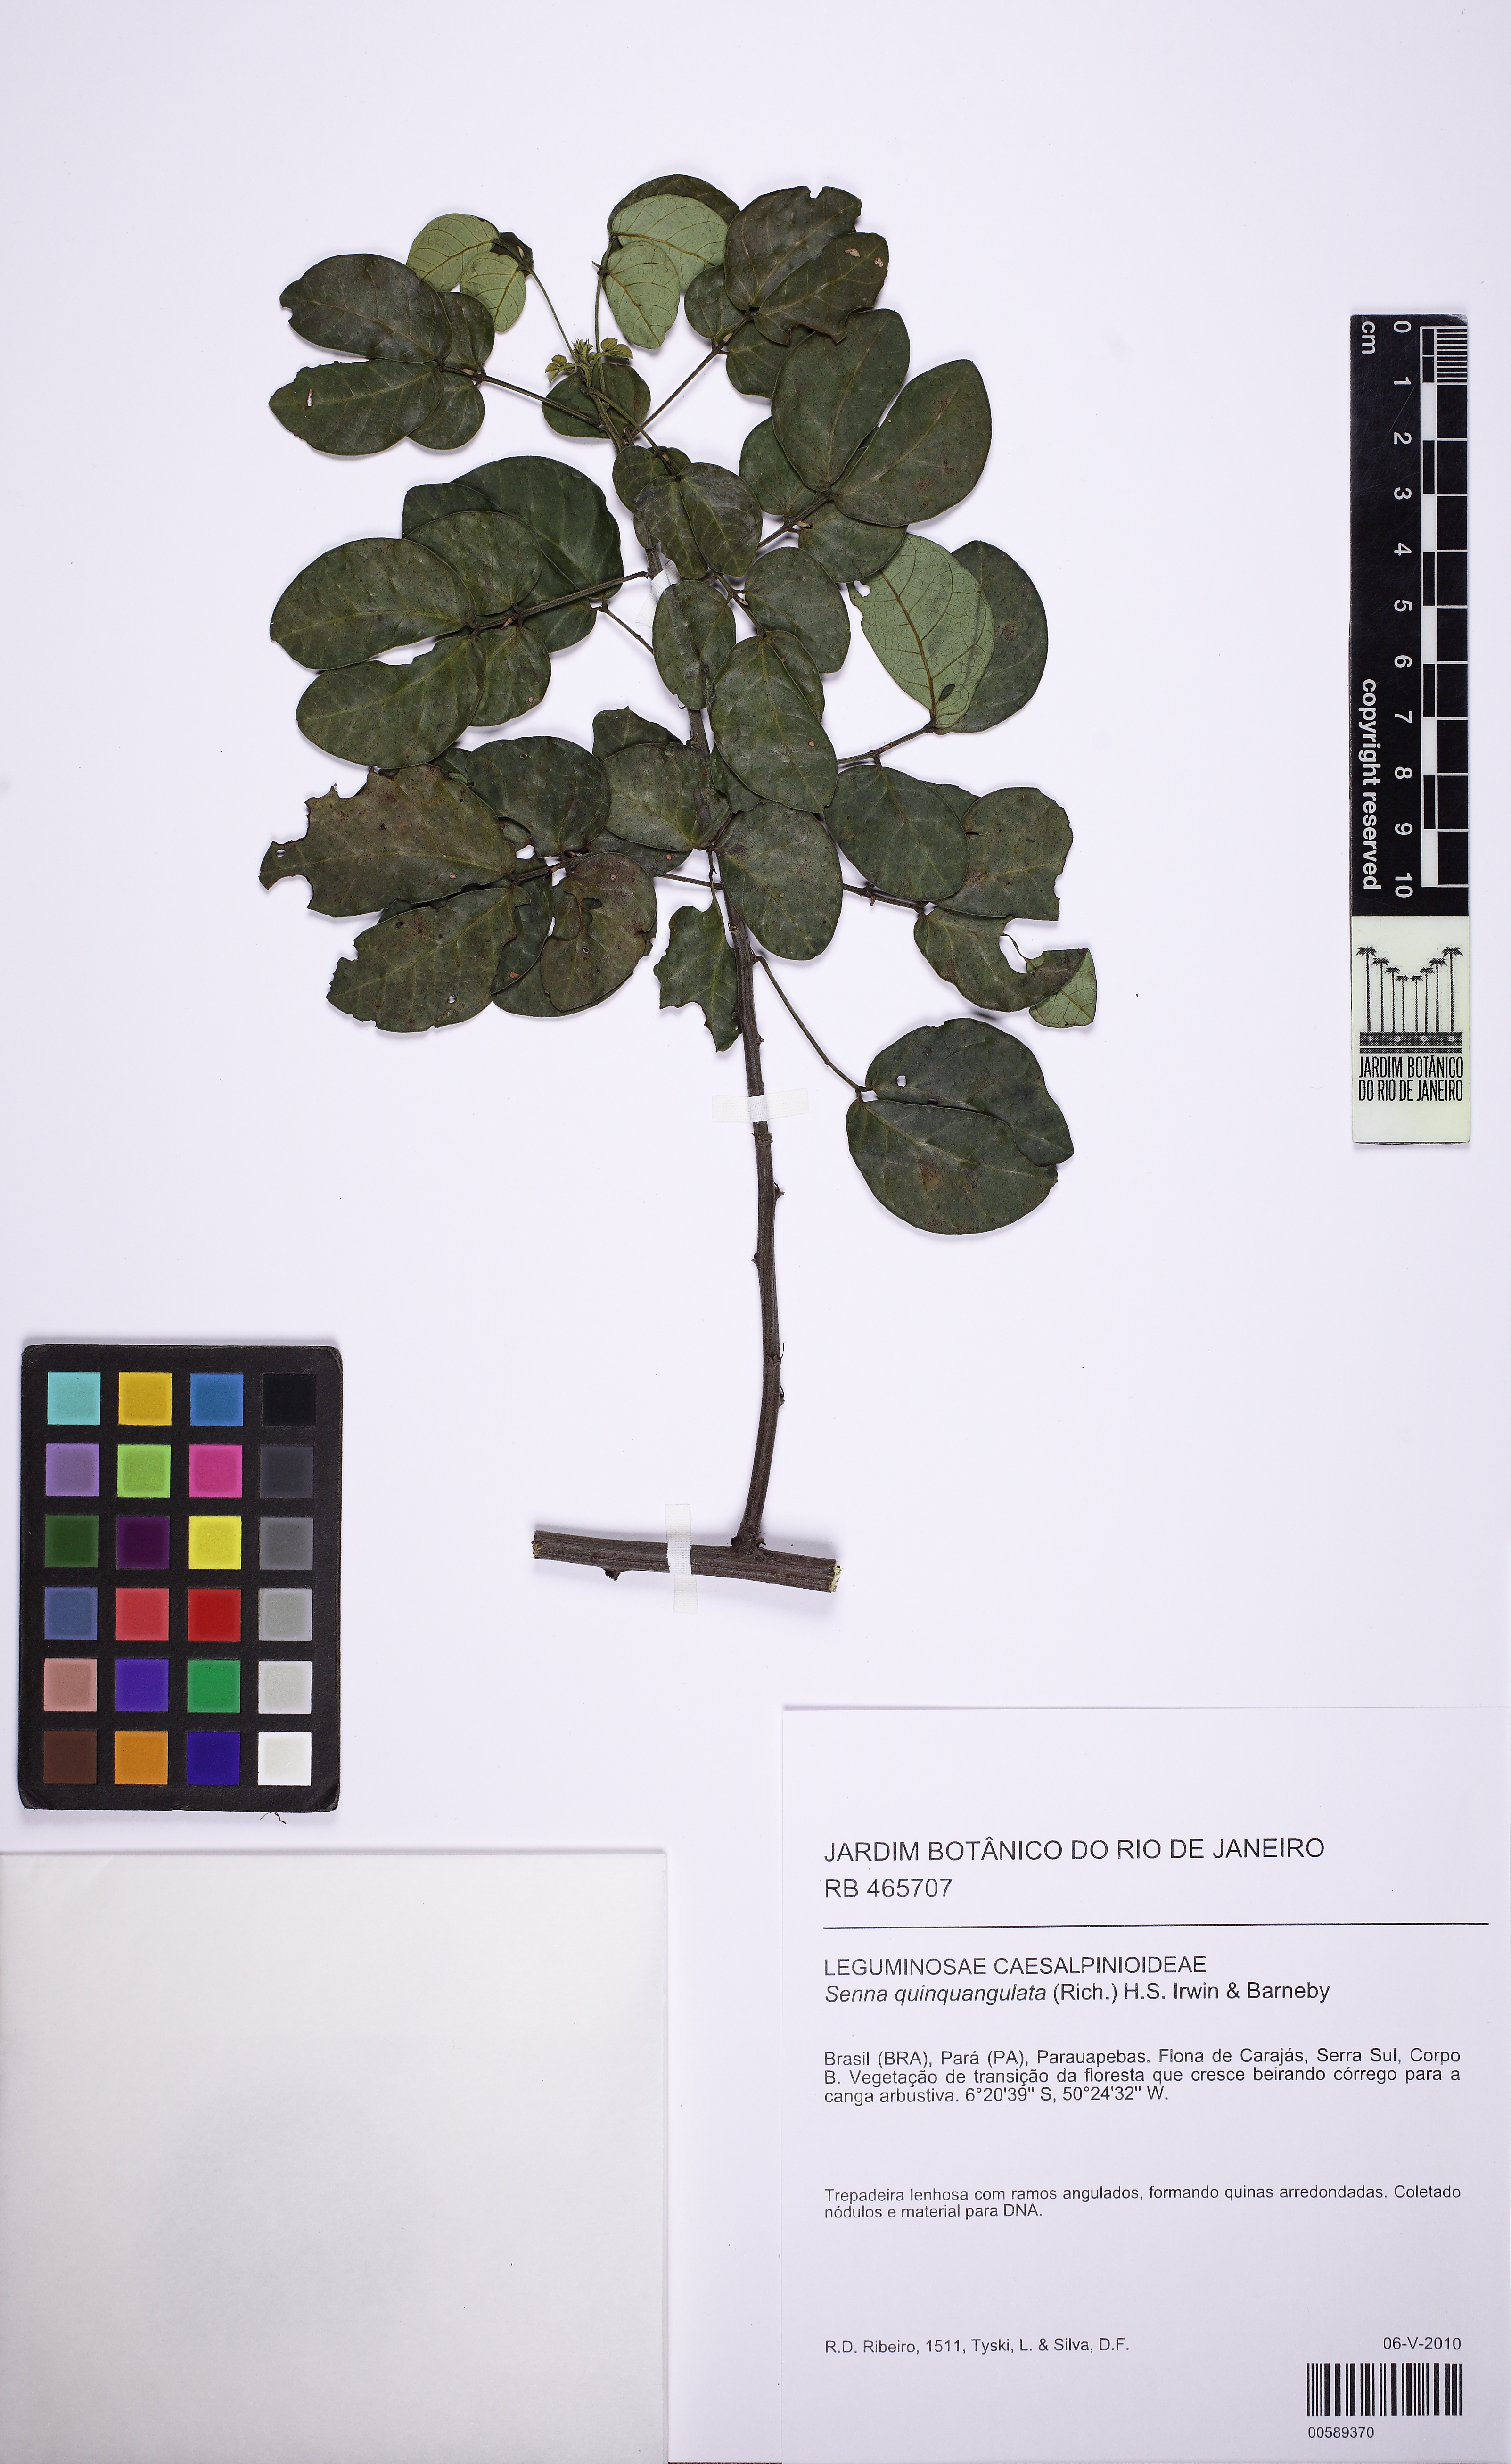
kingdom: Plantae
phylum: Tracheophyta
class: Magnoliopsida
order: Fabales
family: Fabaceae
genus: Senna
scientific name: Senna tapajozensis
